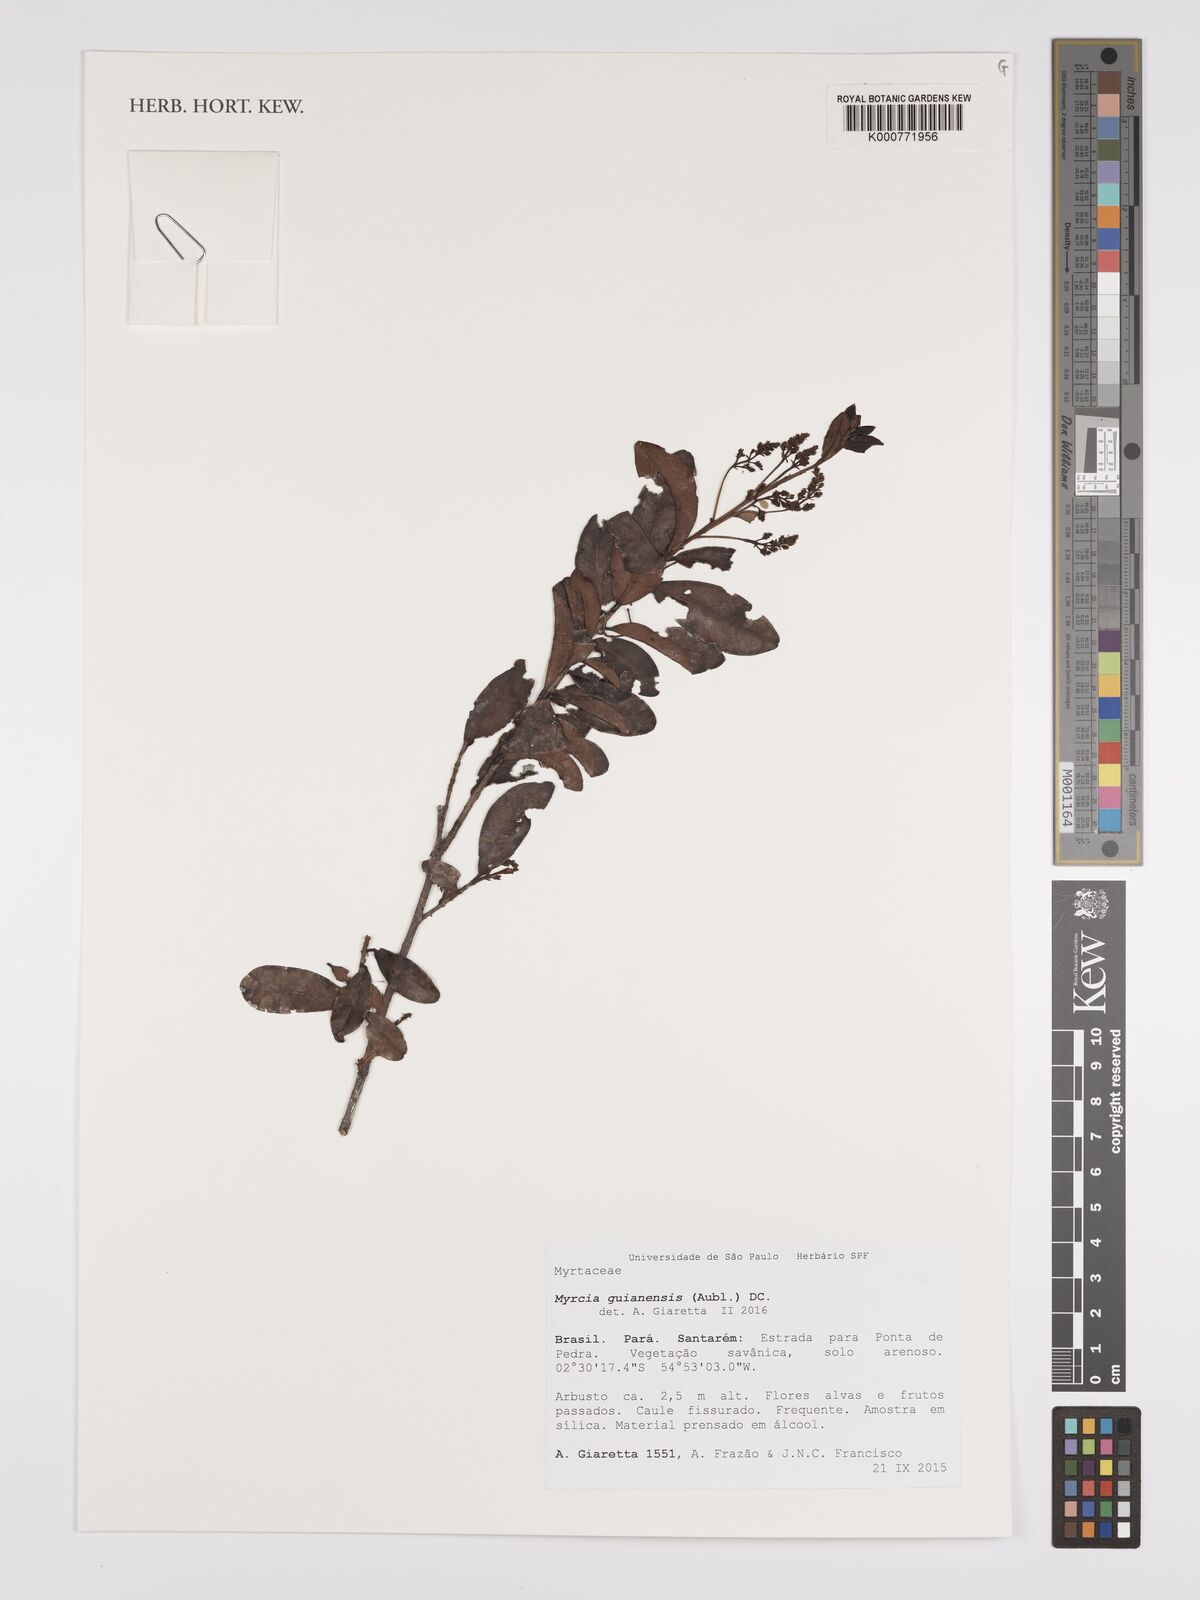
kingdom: Plantae
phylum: Tracheophyta
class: Magnoliopsida
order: Myrtales
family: Myrtaceae
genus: Myrcia
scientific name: Myrcia guianensis
